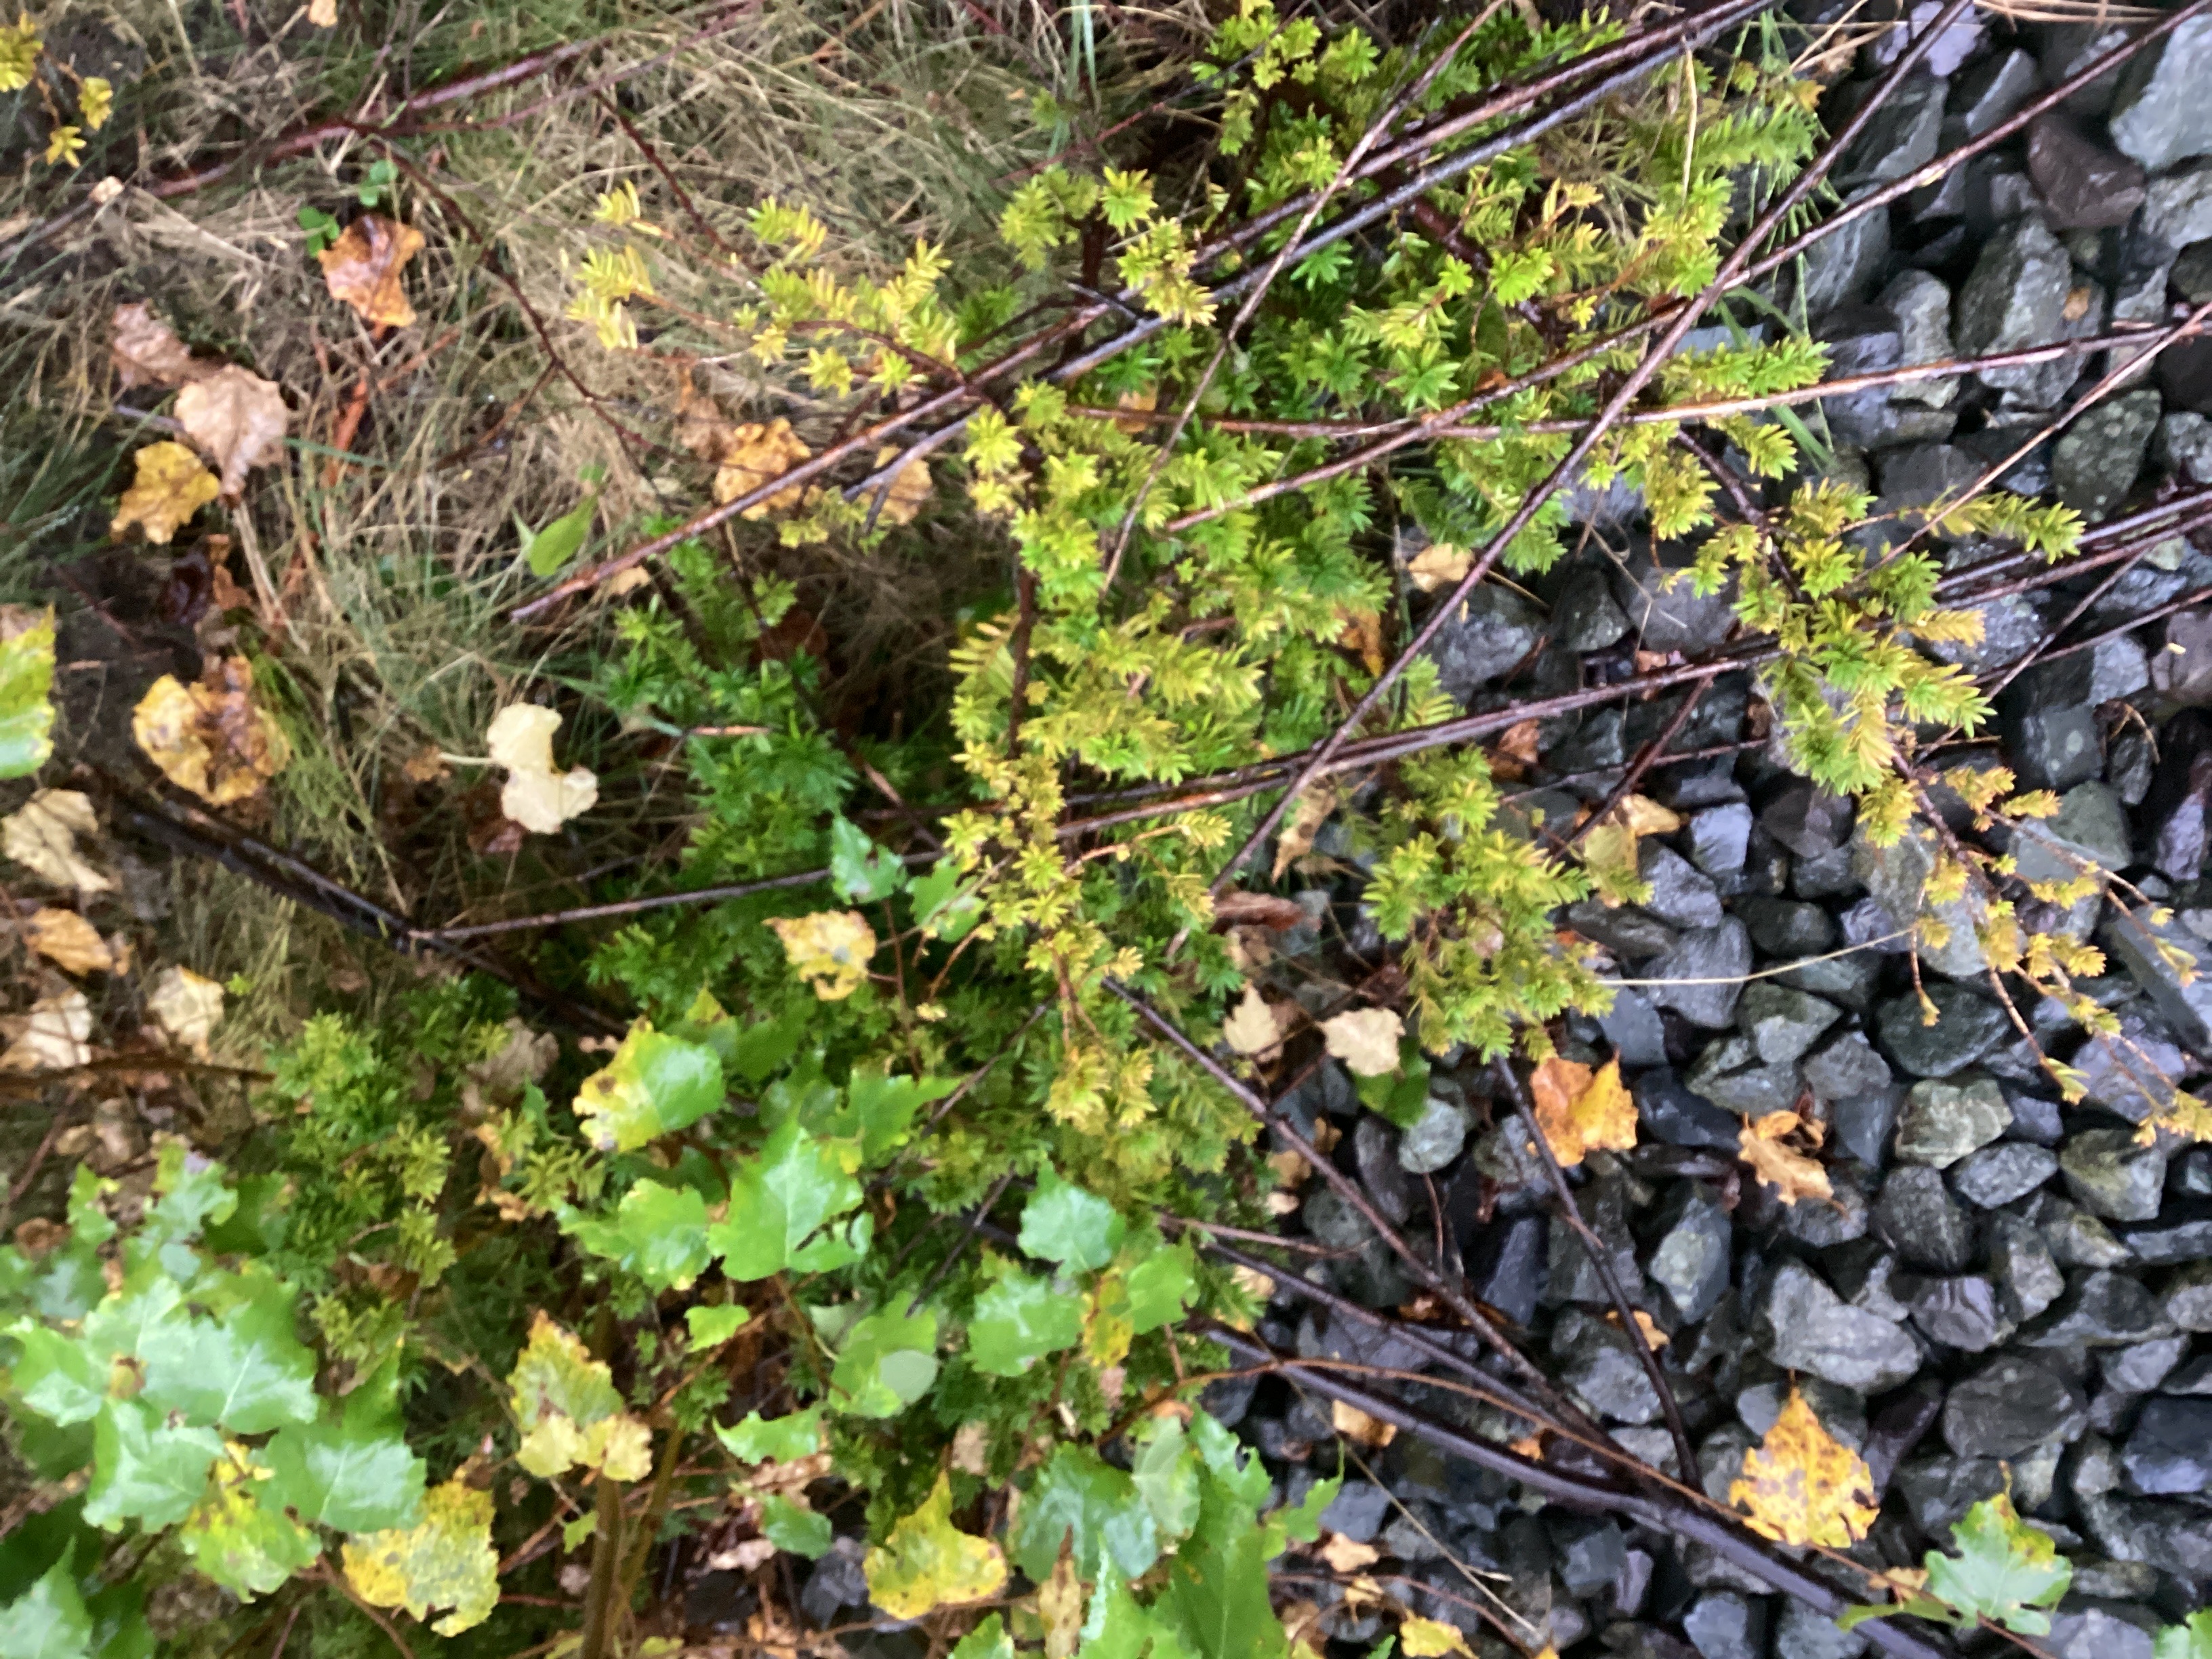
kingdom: Plantae
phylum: Tracheophyta
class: Pinopsida
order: Pinales
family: Taxaceae
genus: Taxus
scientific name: Taxus media
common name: hybridbarlind
